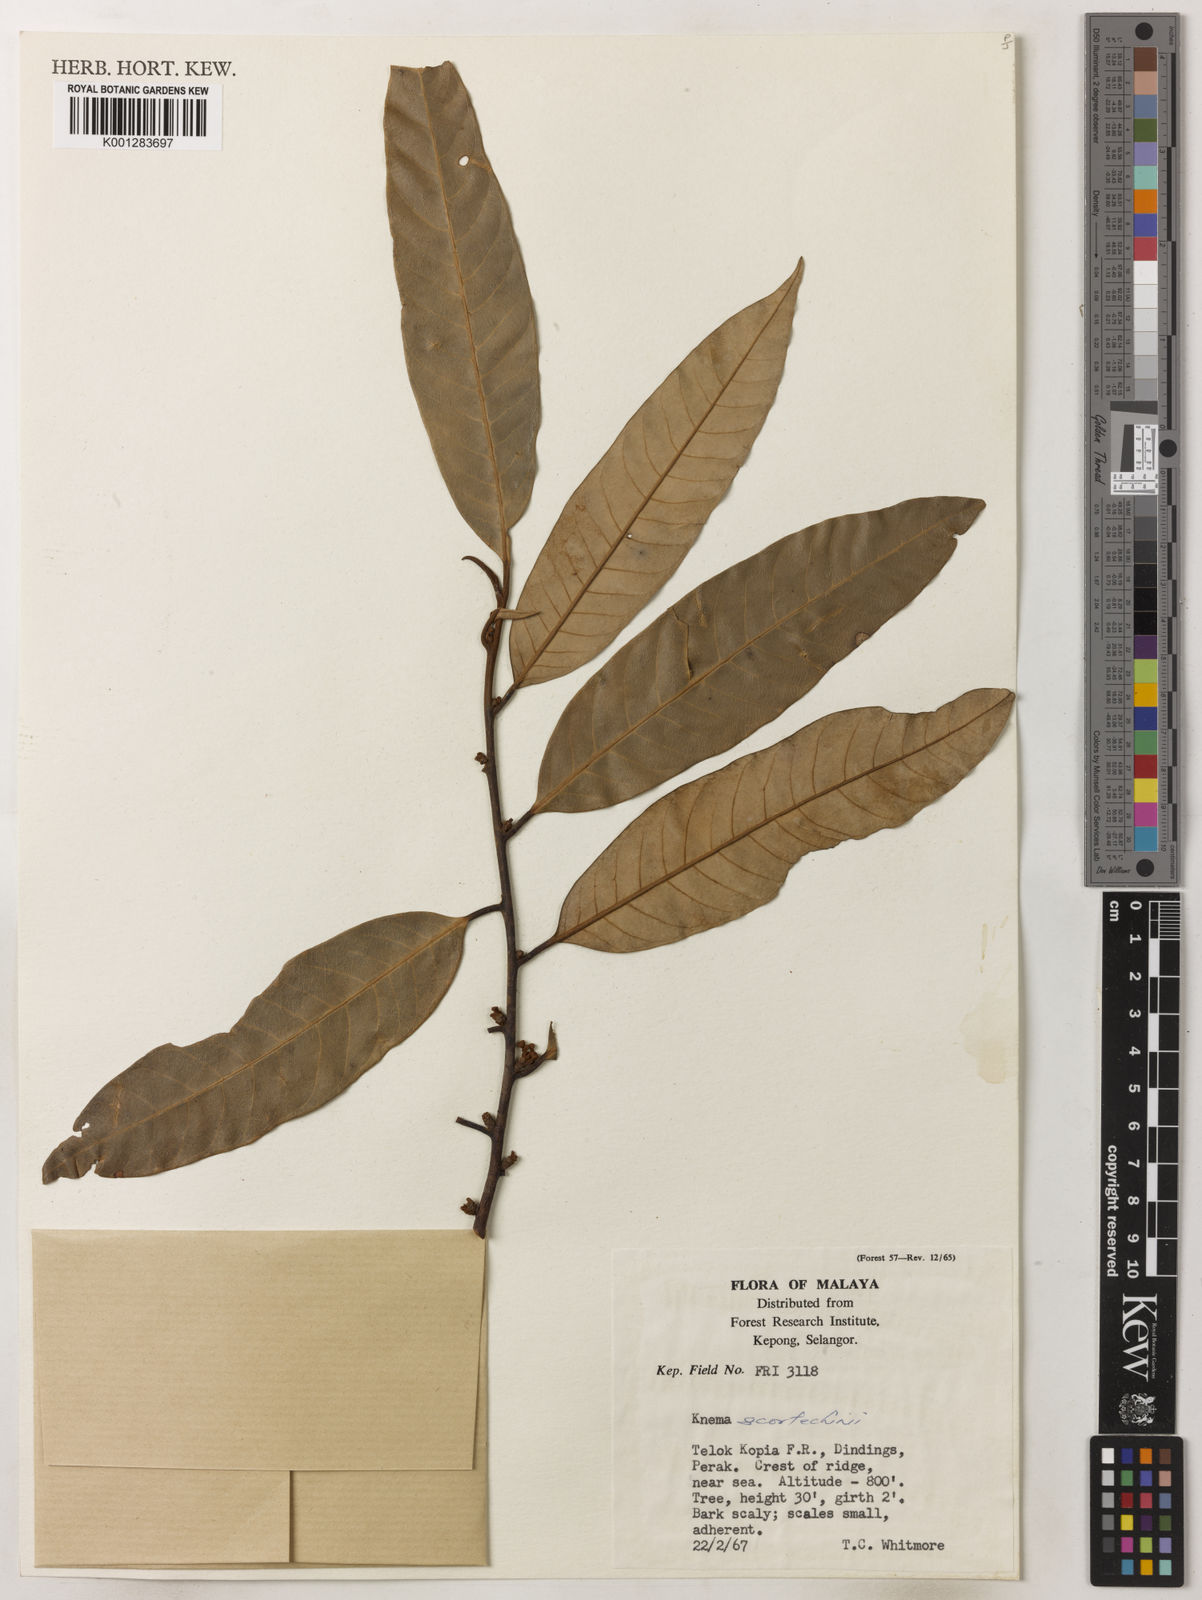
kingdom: Plantae
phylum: Tracheophyta
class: Magnoliopsida
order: Magnoliales
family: Myristicaceae
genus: Knema
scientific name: Knema scortechinii
